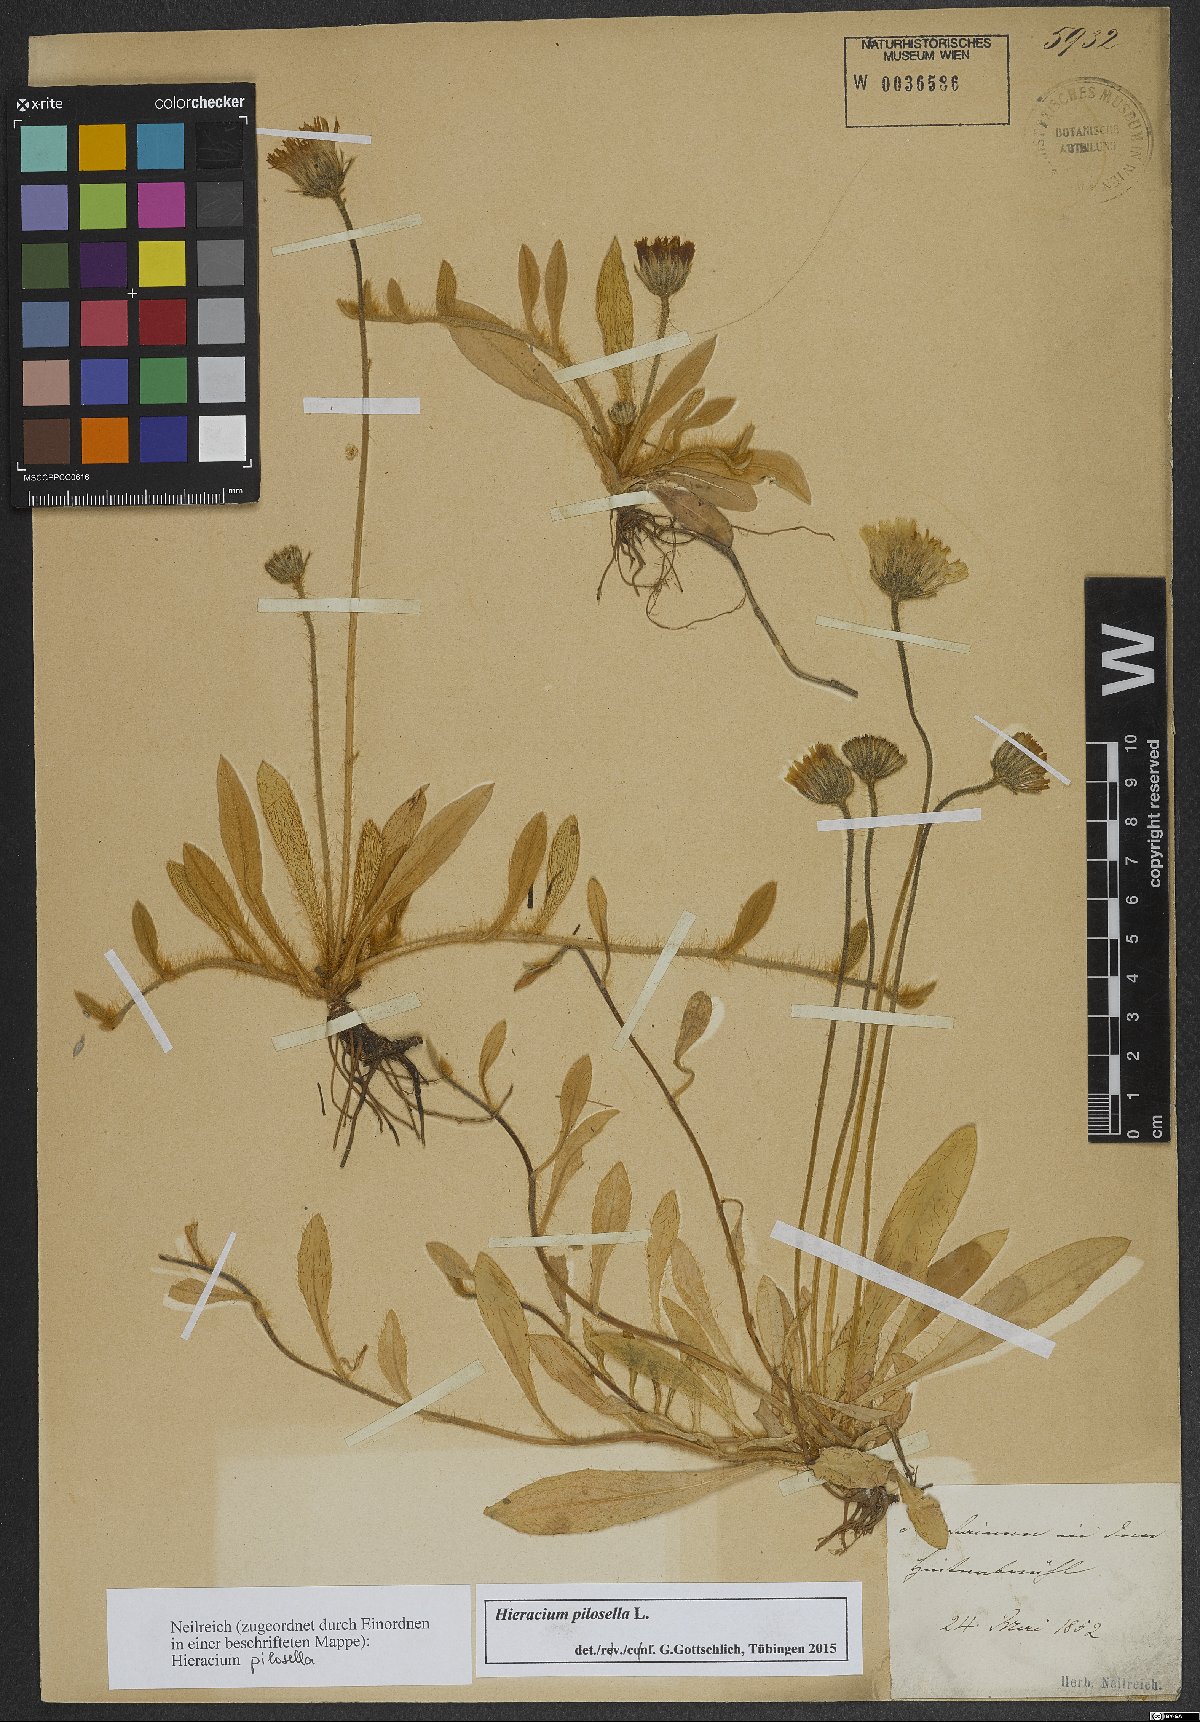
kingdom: Plantae
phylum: Tracheophyta
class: Magnoliopsida
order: Asterales
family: Asteraceae
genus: Pilosella
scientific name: Pilosella officinarum
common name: Mouse-ear hawkweed
